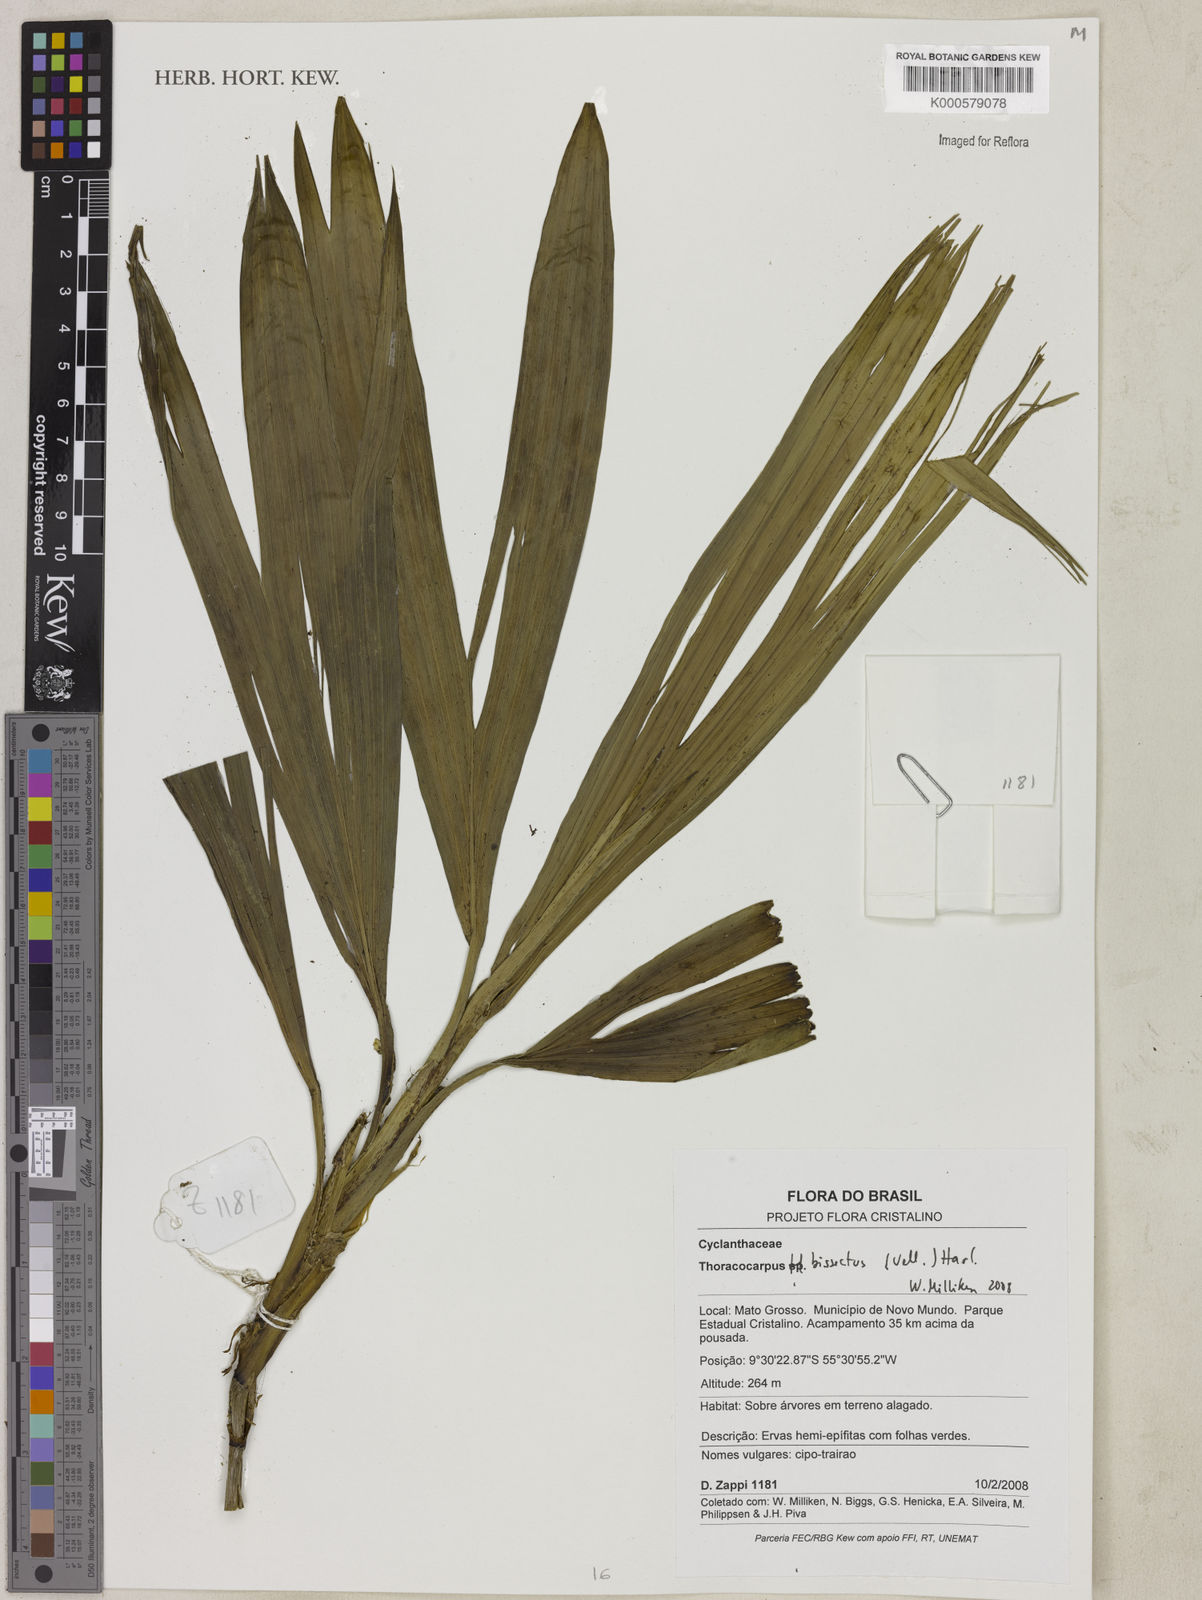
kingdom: Plantae
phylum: Tracheophyta
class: Liliopsida
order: Pandanales
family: Cyclanthaceae
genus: Thoracocarpus
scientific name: Thoracocarpus bissectus
